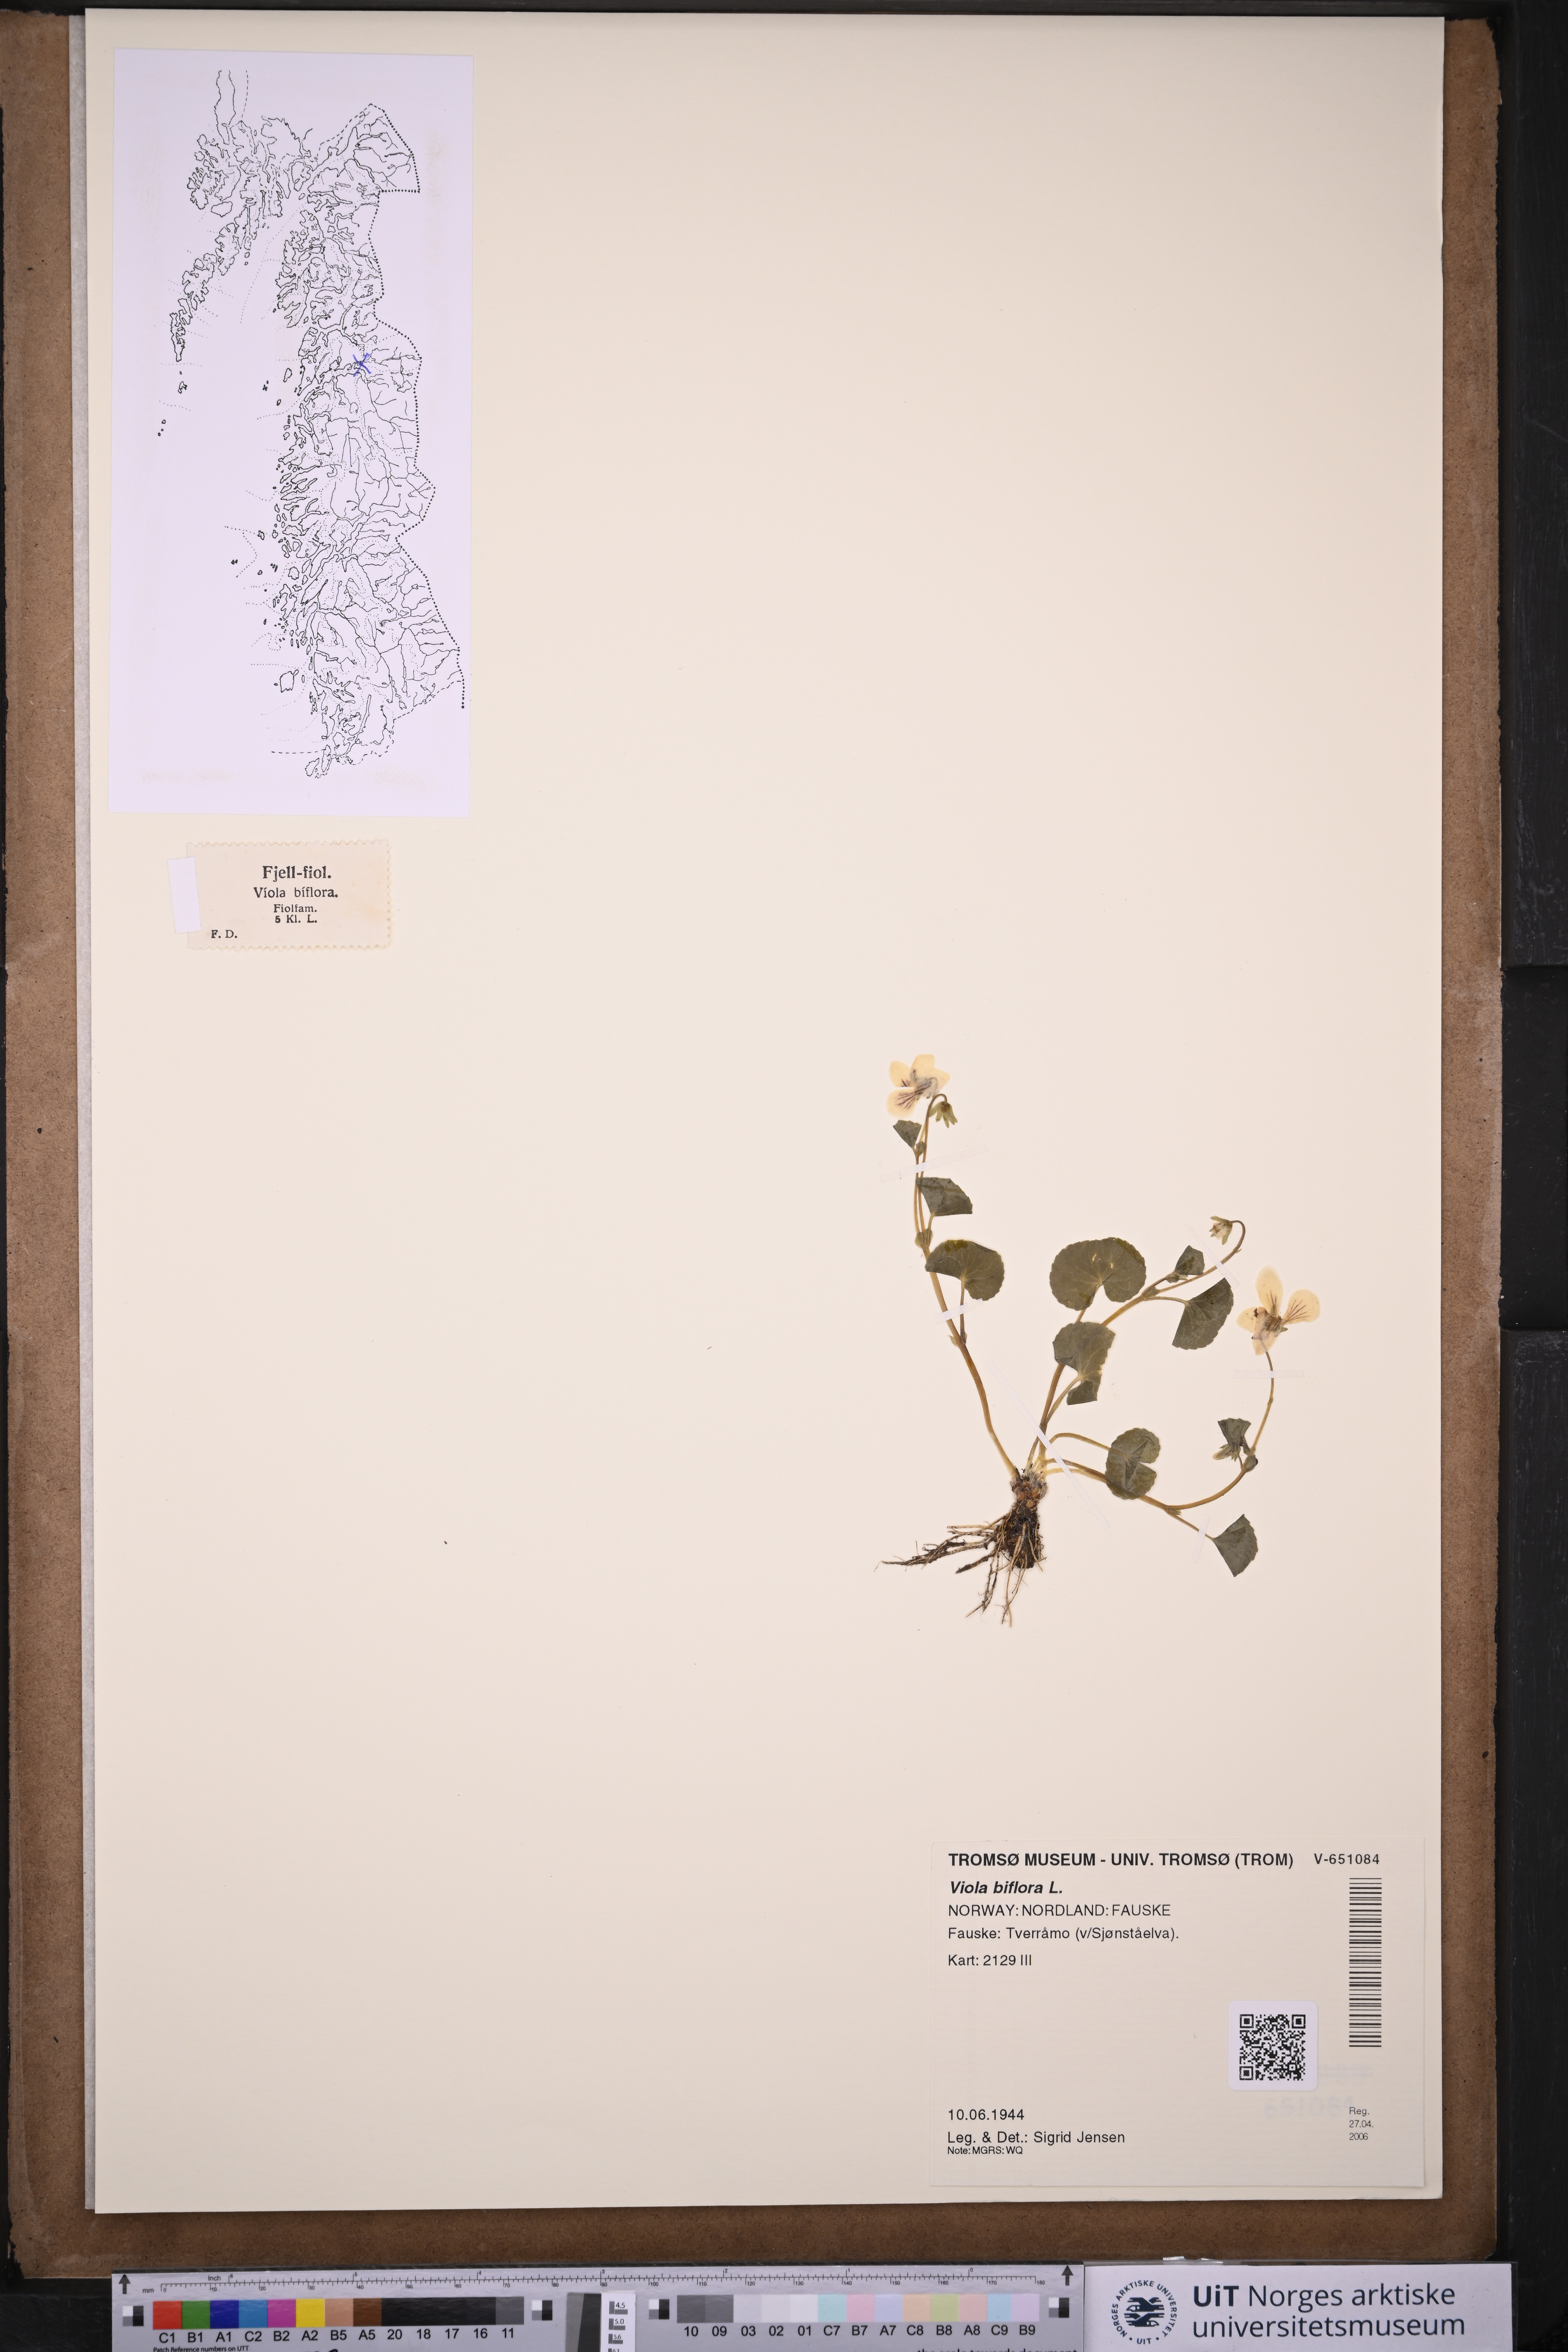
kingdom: Plantae
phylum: Tracheophyta
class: Magnoliopsida
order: Malpighiales
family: Violaceae
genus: Viola
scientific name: Viola biflora
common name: Alpine yellow violet
